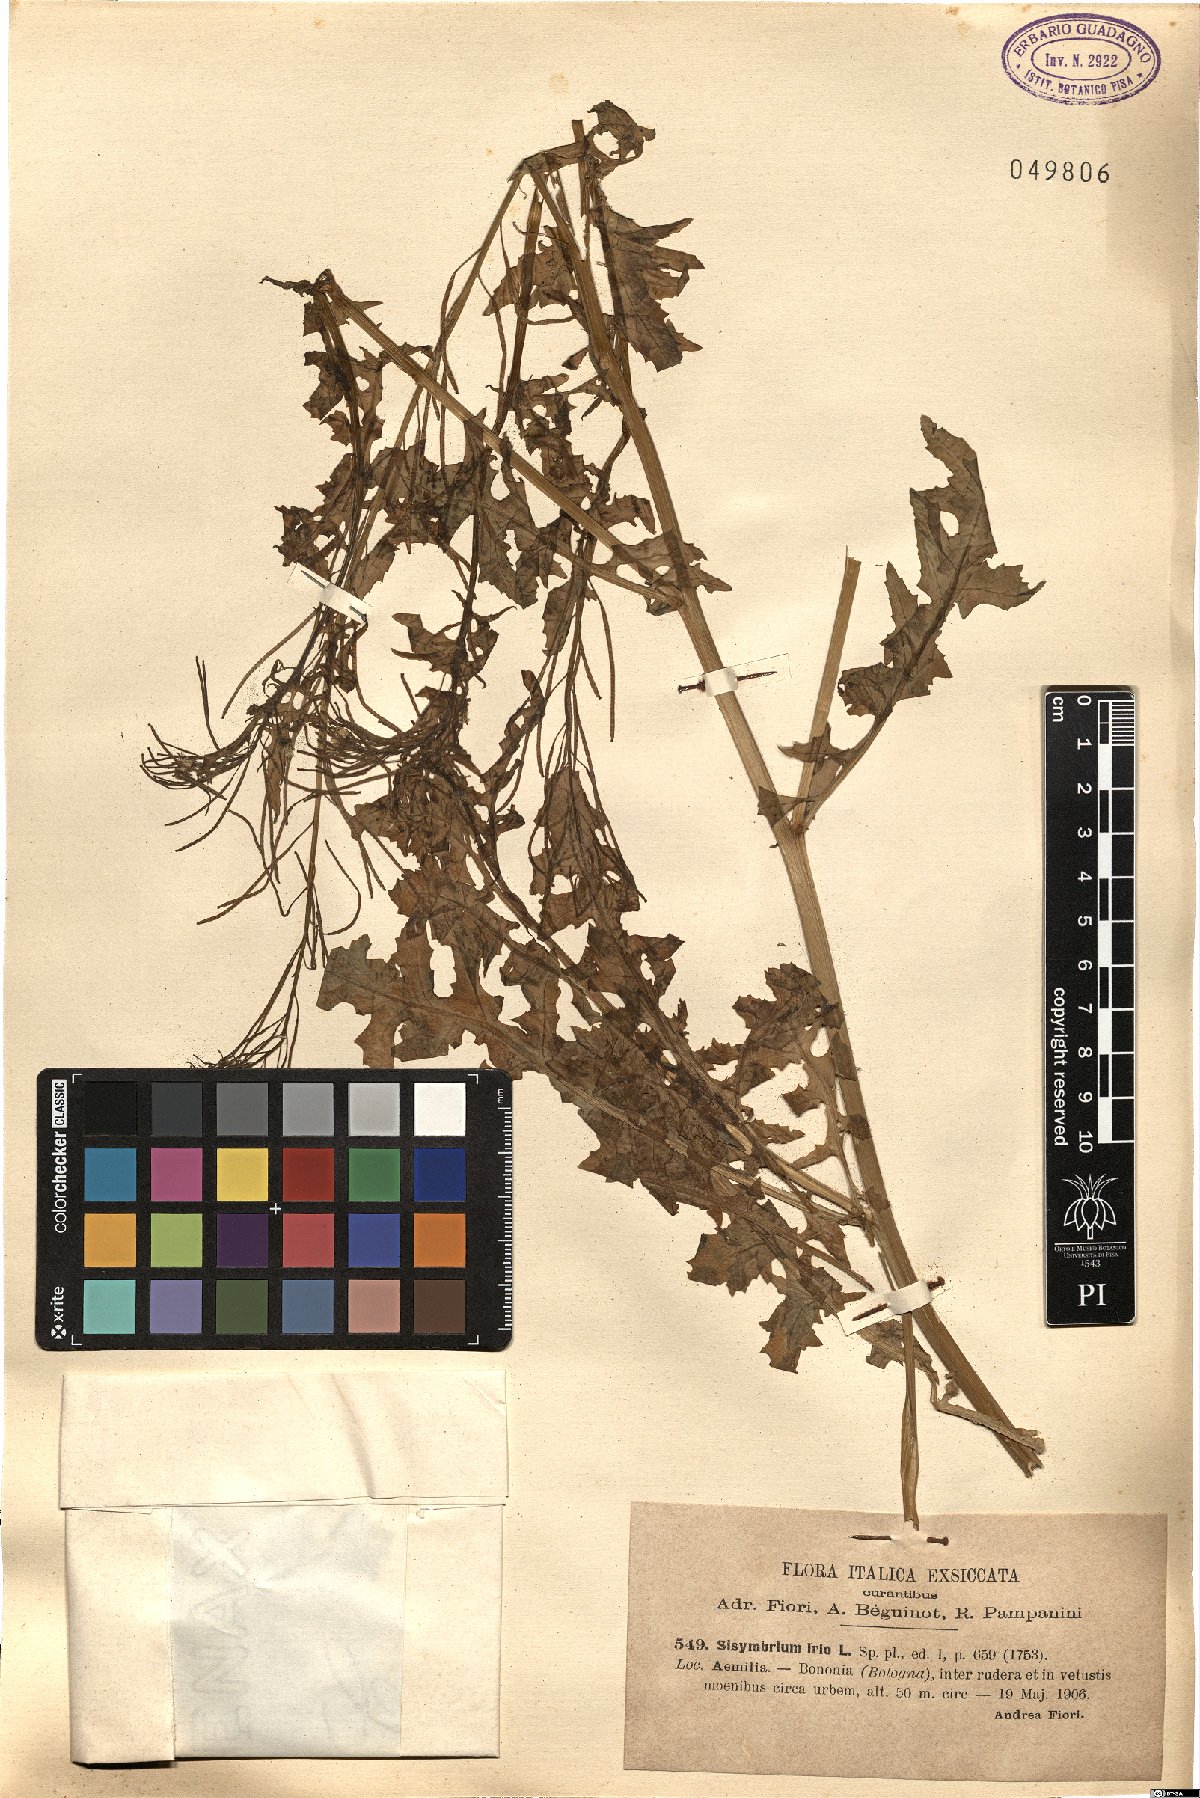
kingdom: Plantae
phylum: Tracheophyta
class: Magnoliopsida
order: Brassicales
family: Brassicaceae
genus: Sisymbrium
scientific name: Sisymbrium irio
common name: London rocket
